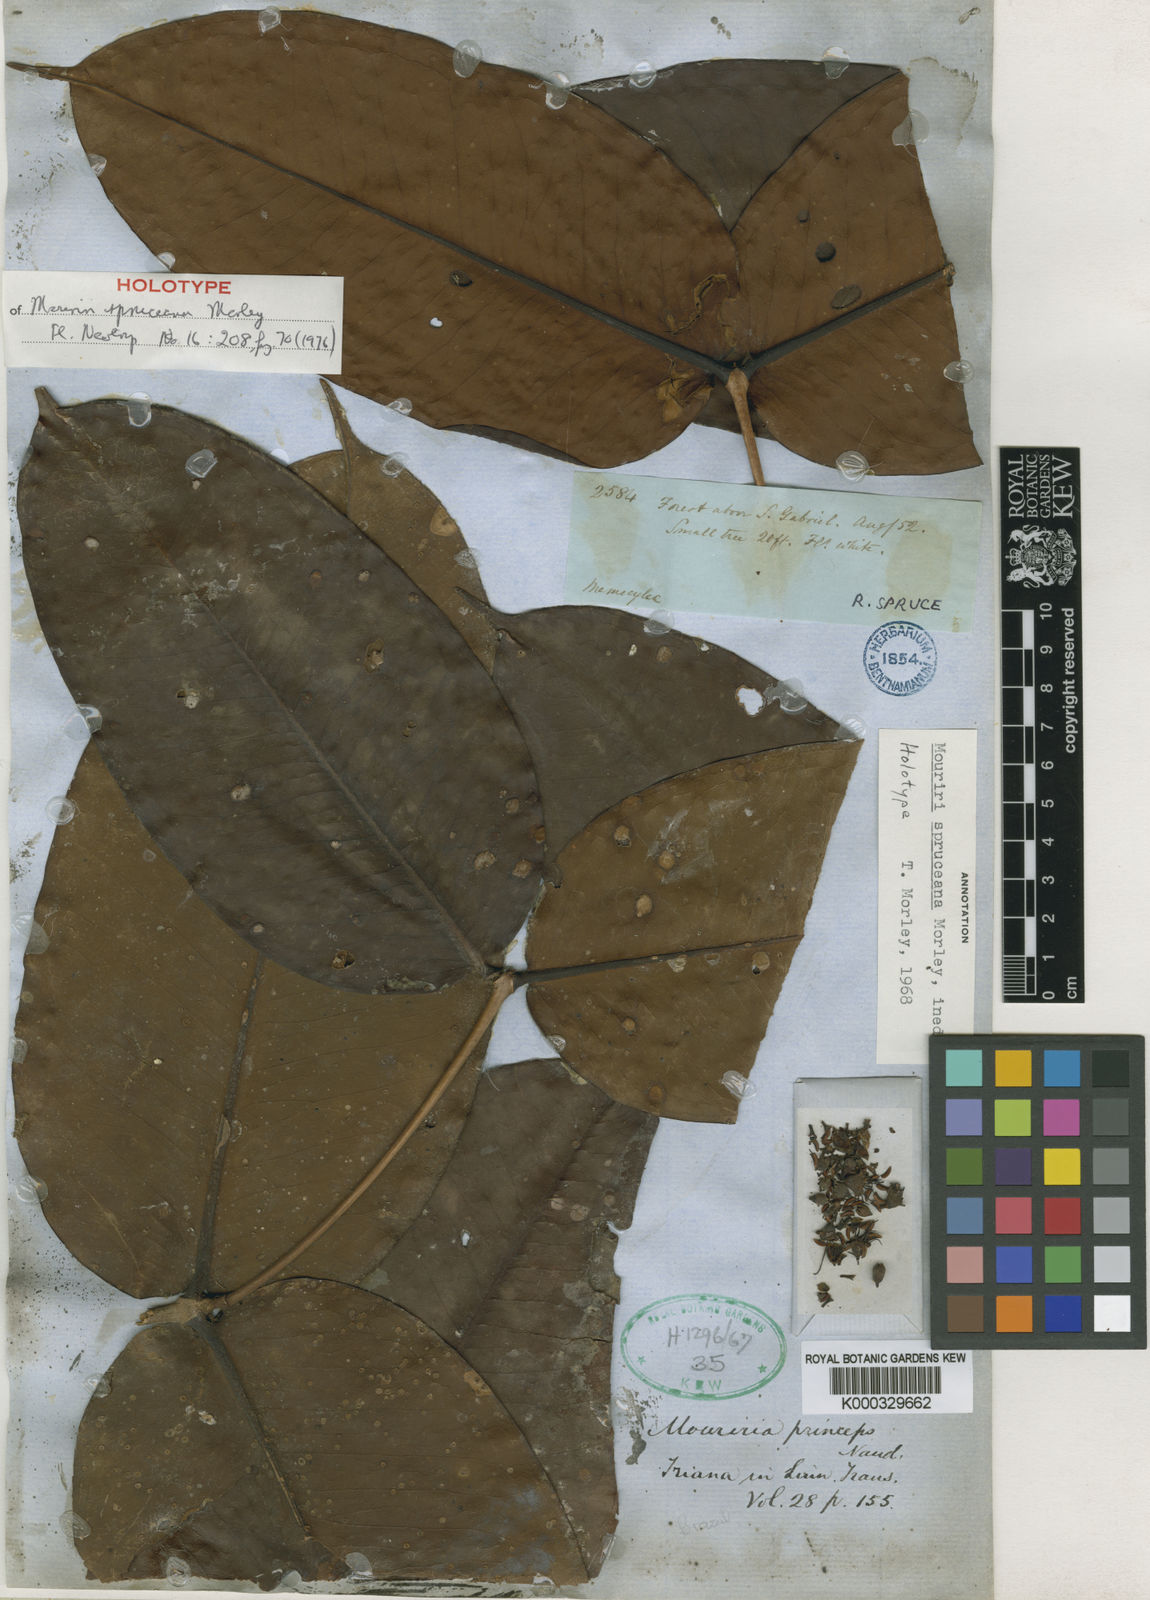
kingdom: Plantae
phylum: Tracheophyta
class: Magnoliopsida
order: Myrtales
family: Melastomataceae
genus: Mouriri
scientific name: Mouriri spruceana
